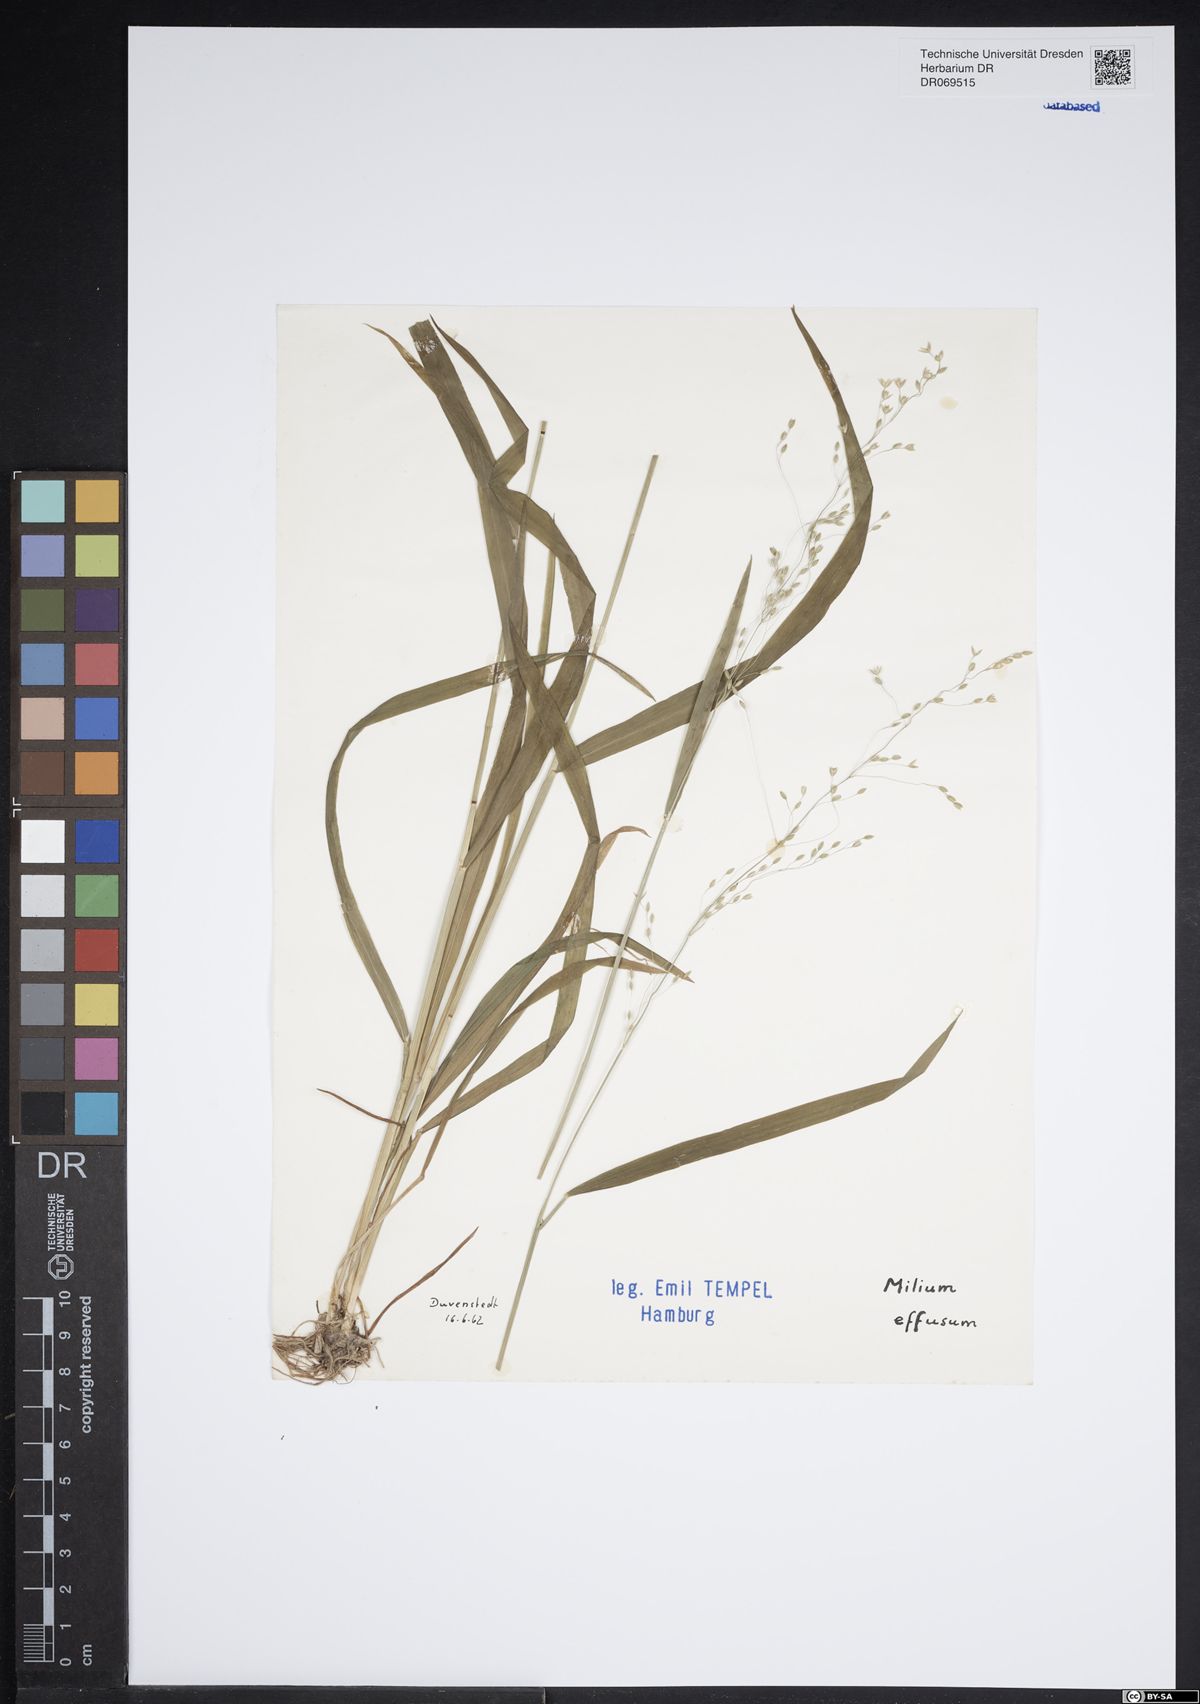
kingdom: Plantae
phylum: Tracheophyta
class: Liliopsida
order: Poales
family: Poaceae
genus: Milium
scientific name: Milium effusum
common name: Wood millet
